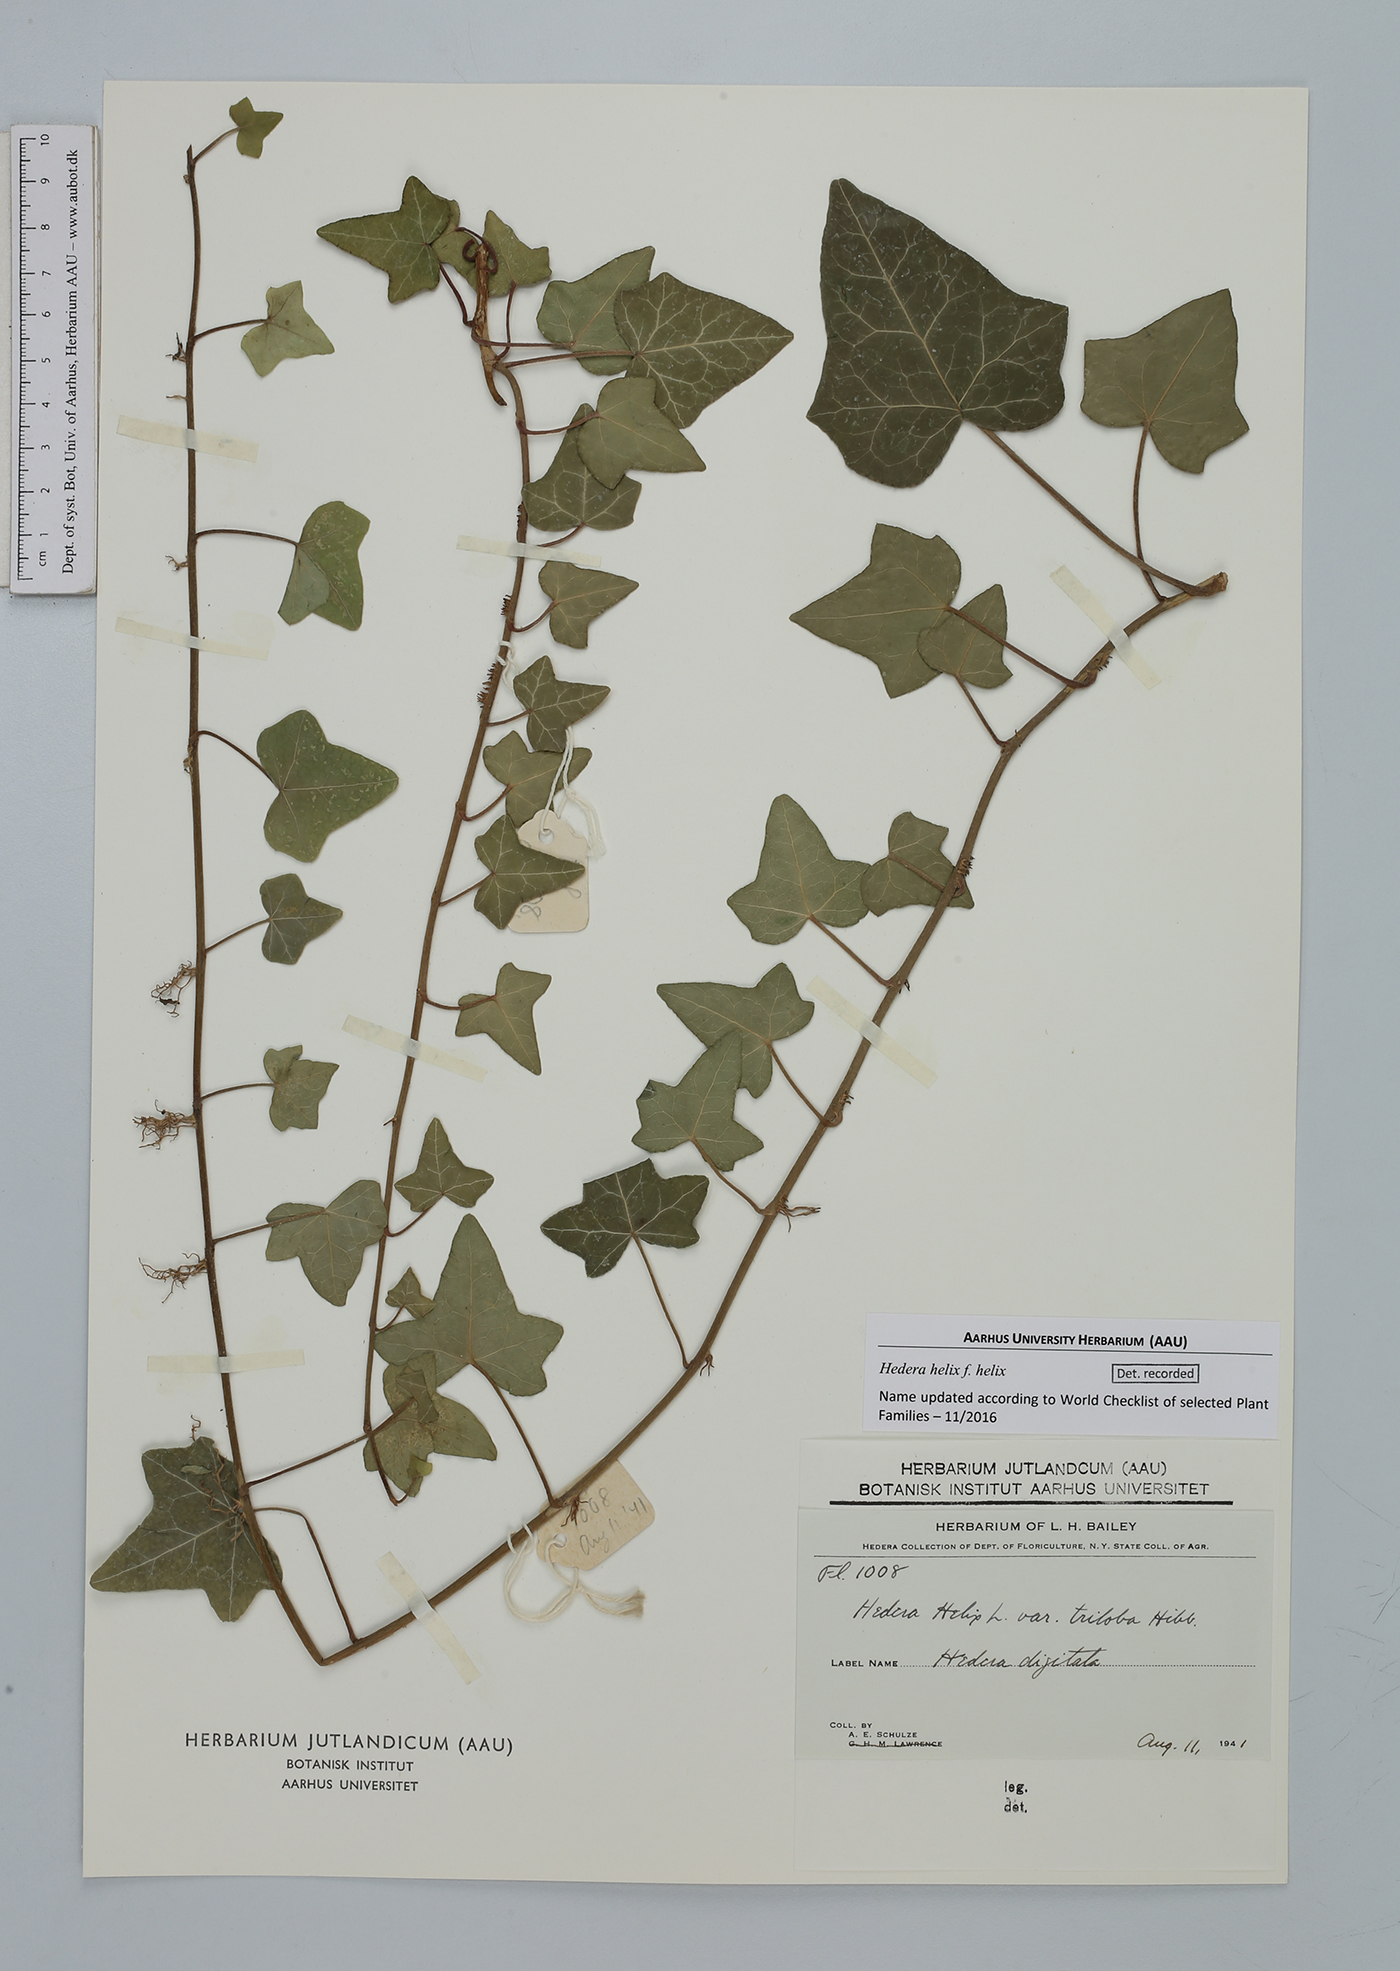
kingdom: Plantae
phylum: Tracheophyta
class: Magnoliopsida
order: Apiales
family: Araliaceae
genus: Hedera
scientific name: Hedera helix
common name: Ivy
